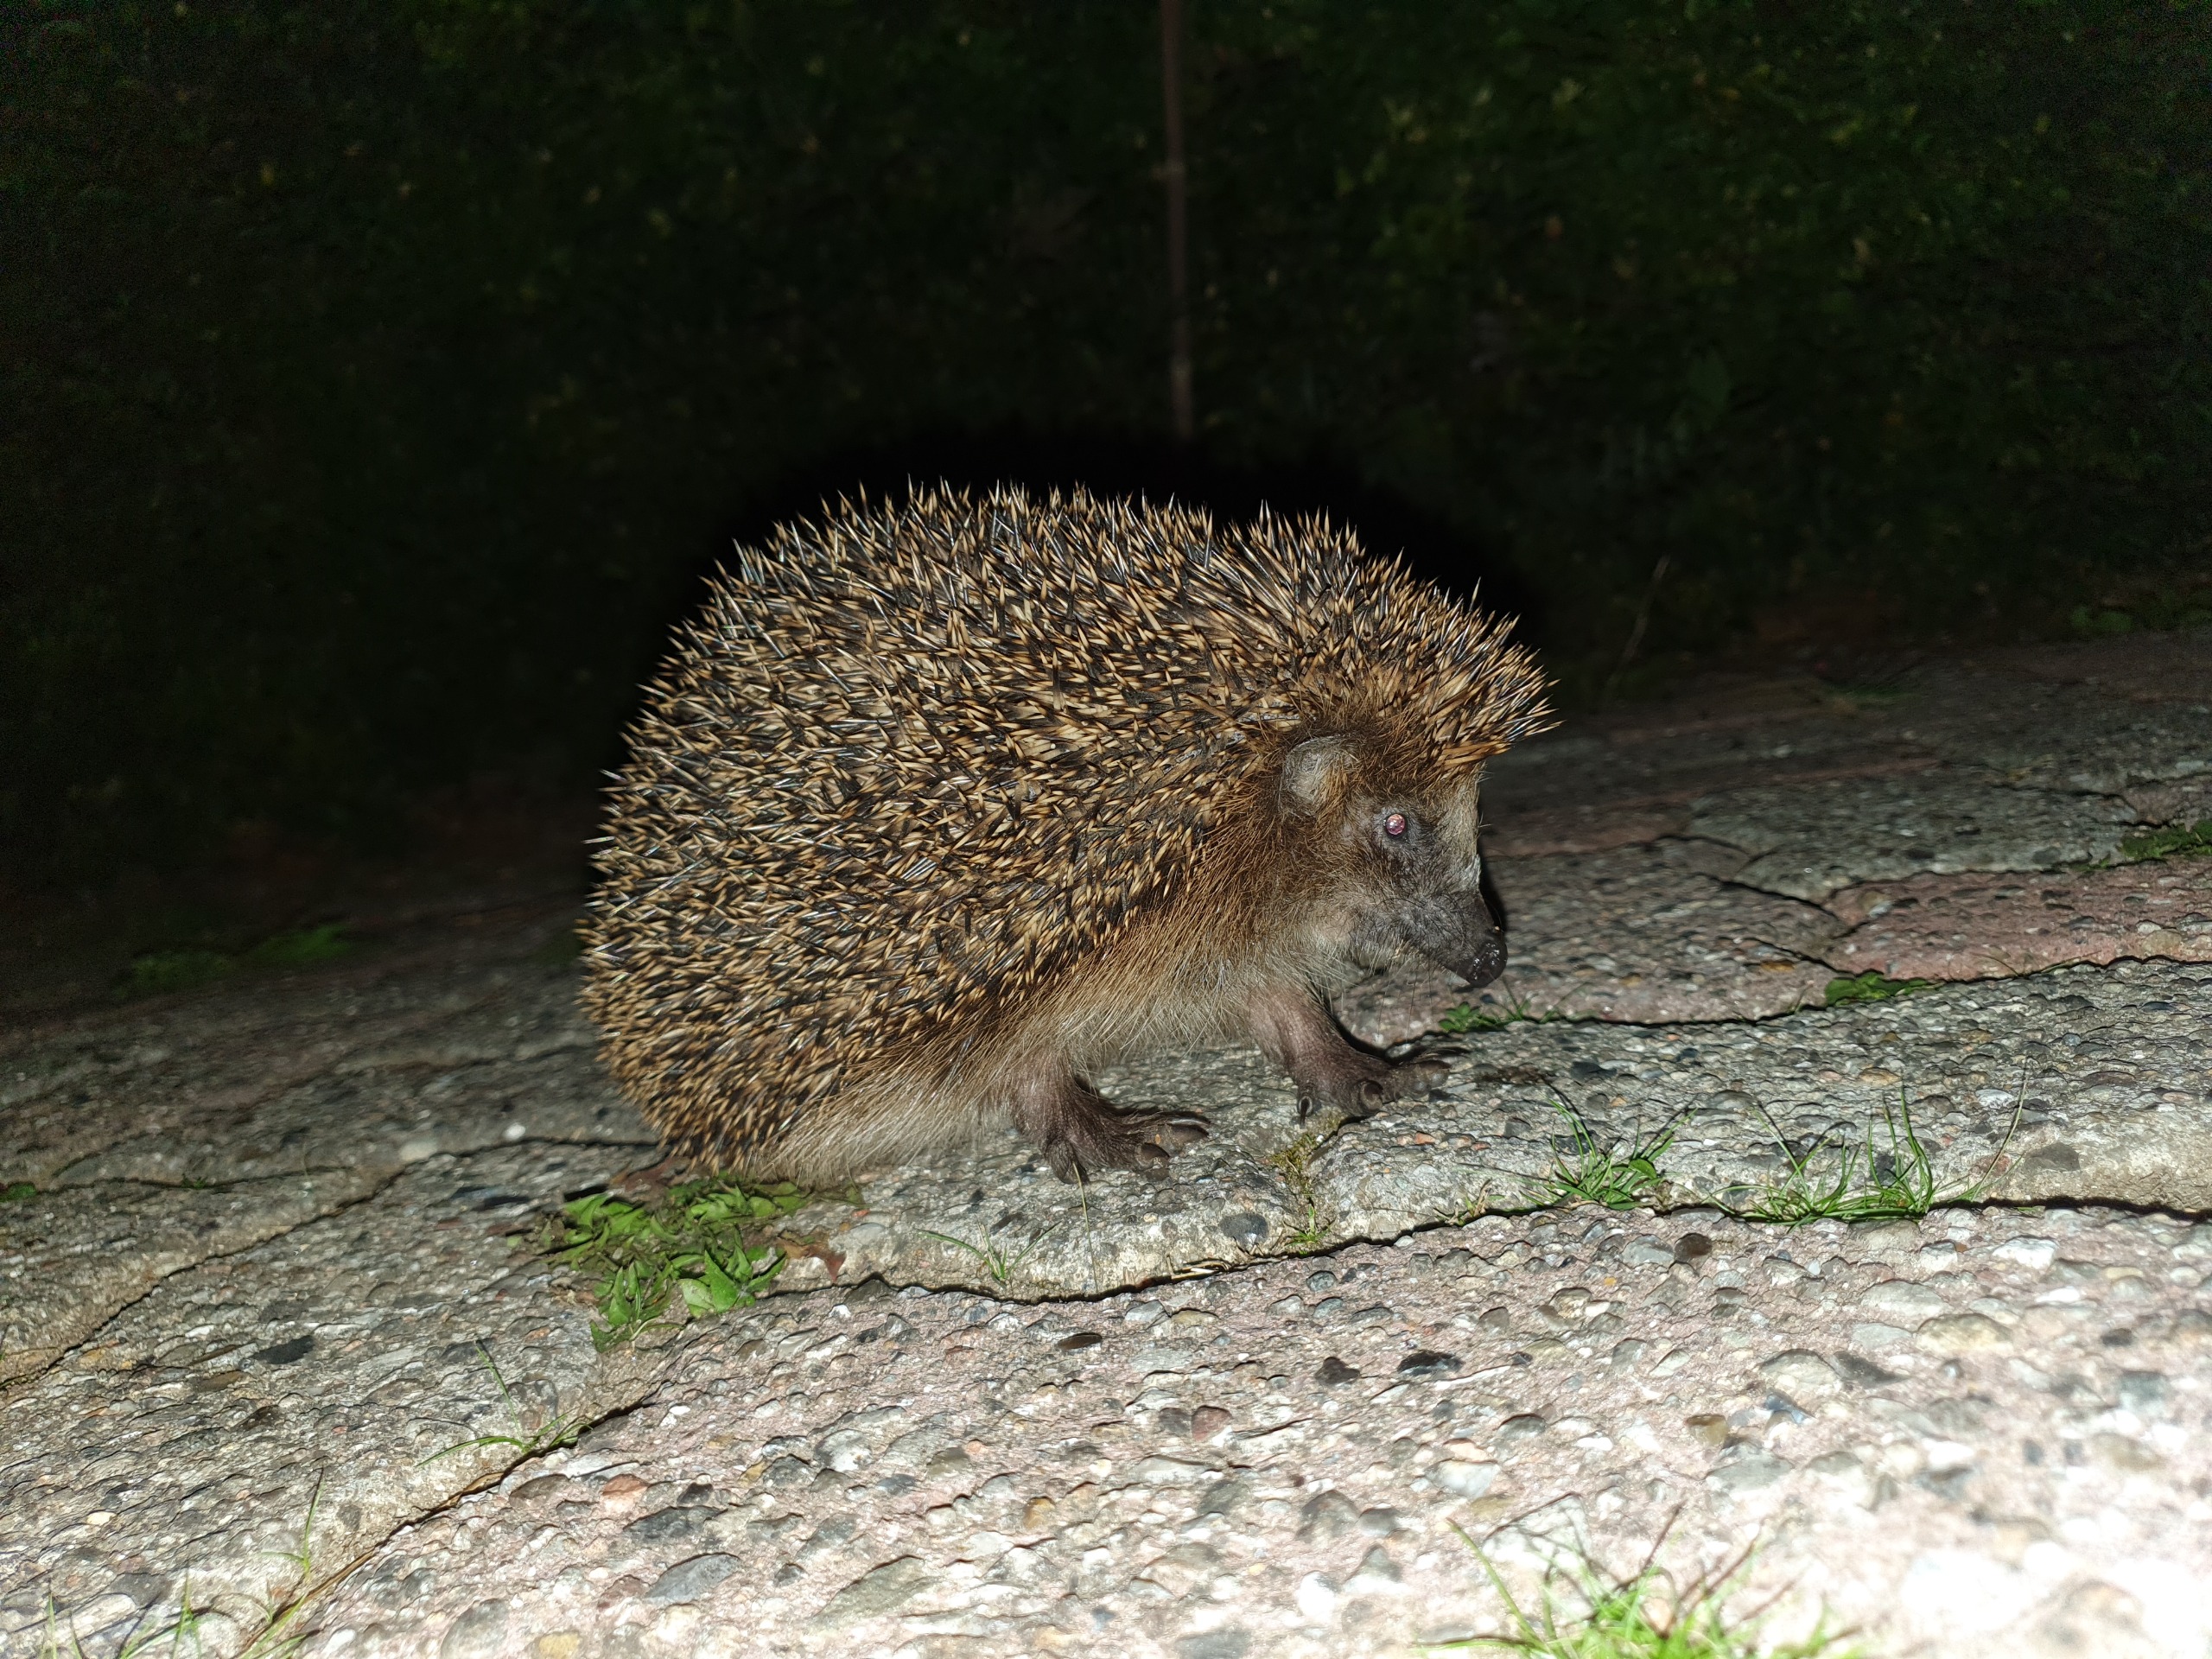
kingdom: Animalia
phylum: Chordata
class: Mammalia
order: Erinaceomorpha
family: Erinaceidae
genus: Erinaceus
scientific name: Erinaceus europaeus
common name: Pindsvin
